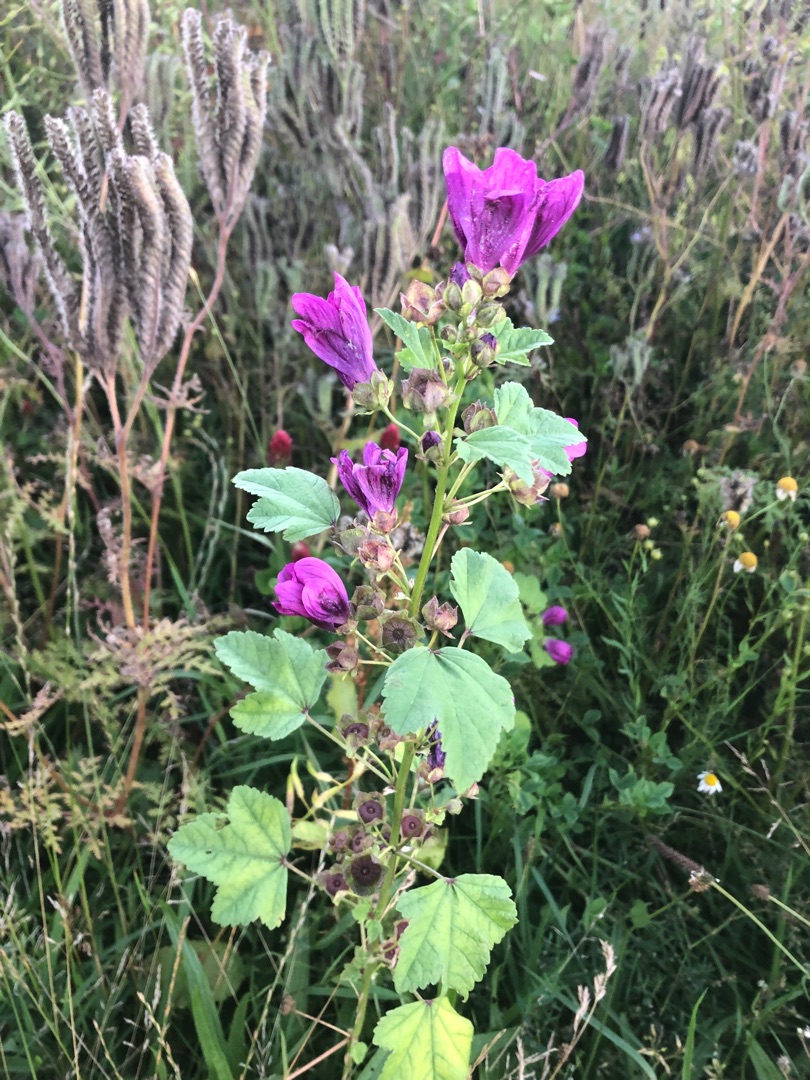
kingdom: Plantae
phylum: Tracheophyta
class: Magnoliopsida
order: Malvales
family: Malvaceae
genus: Malva
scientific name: Malva sylvestris
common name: Almindelig katost
